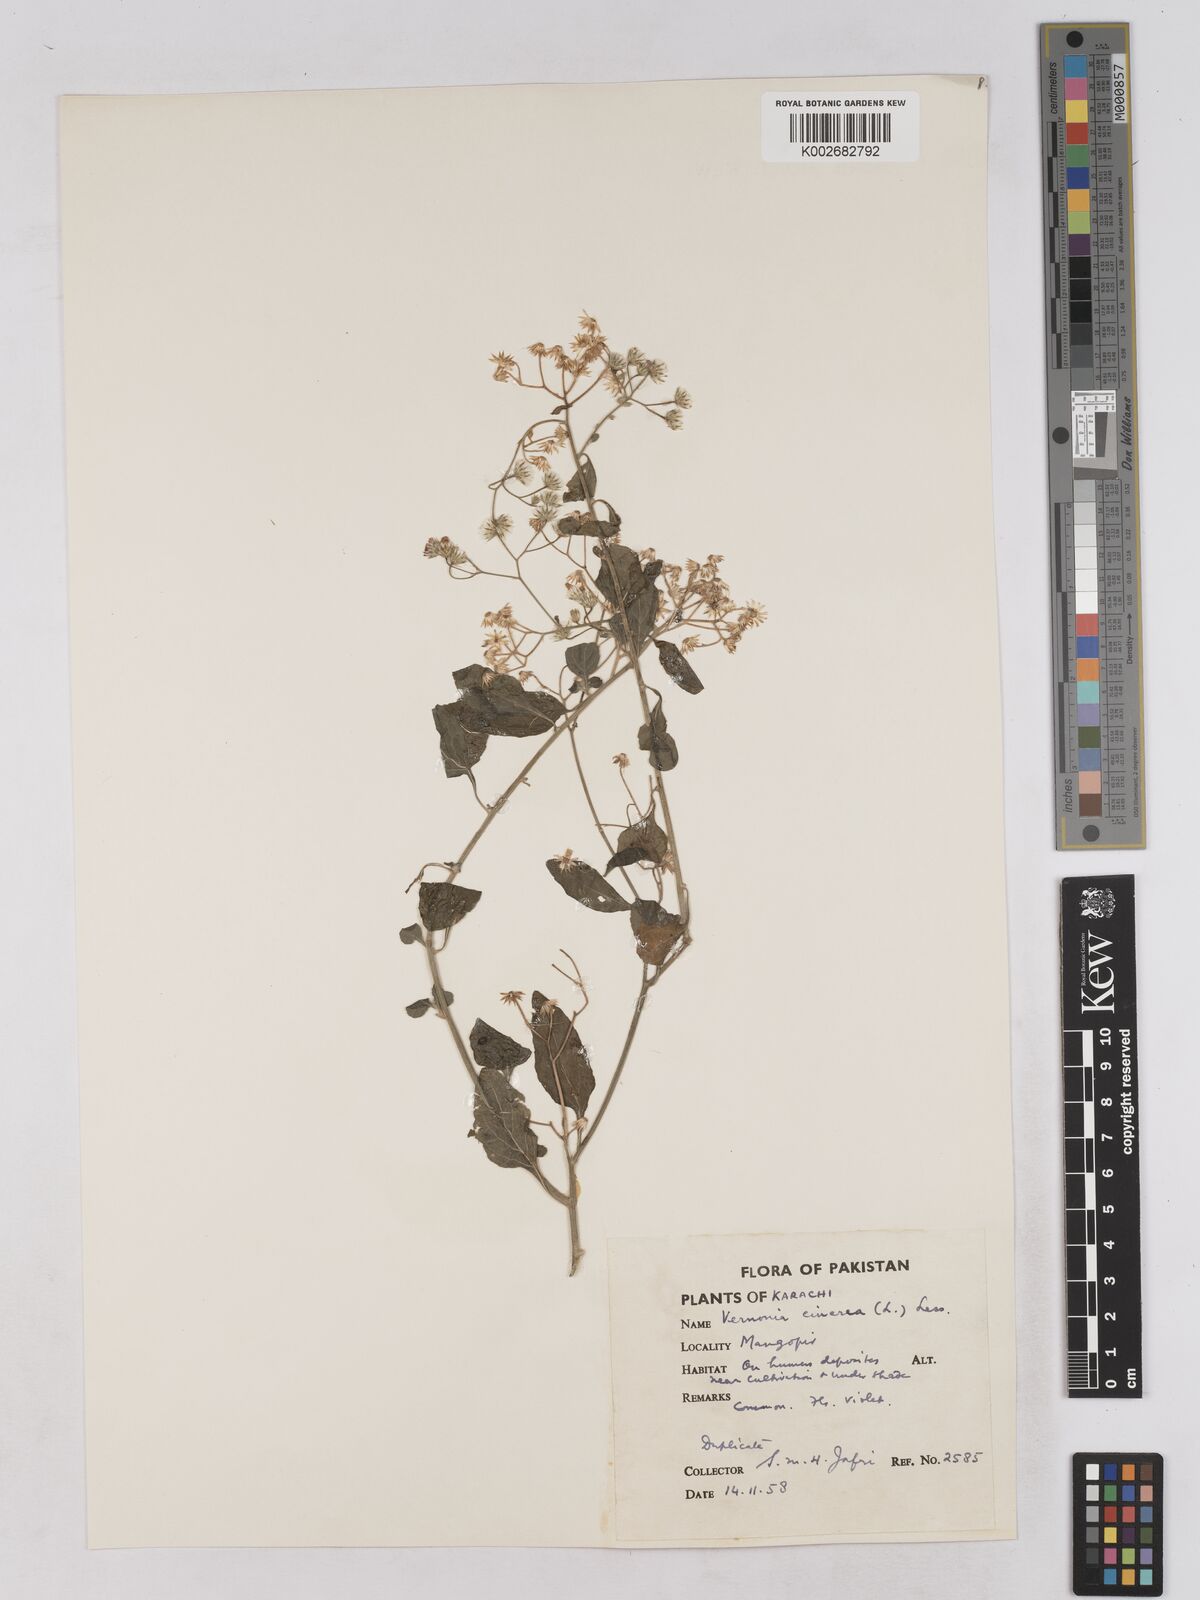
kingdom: Plantae
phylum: Tracheophyta
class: Magnoliopsida
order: Asterales
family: Asteraceae
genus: Cyanthillium
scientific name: Cyanthillium cinereum
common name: Little ironweed
